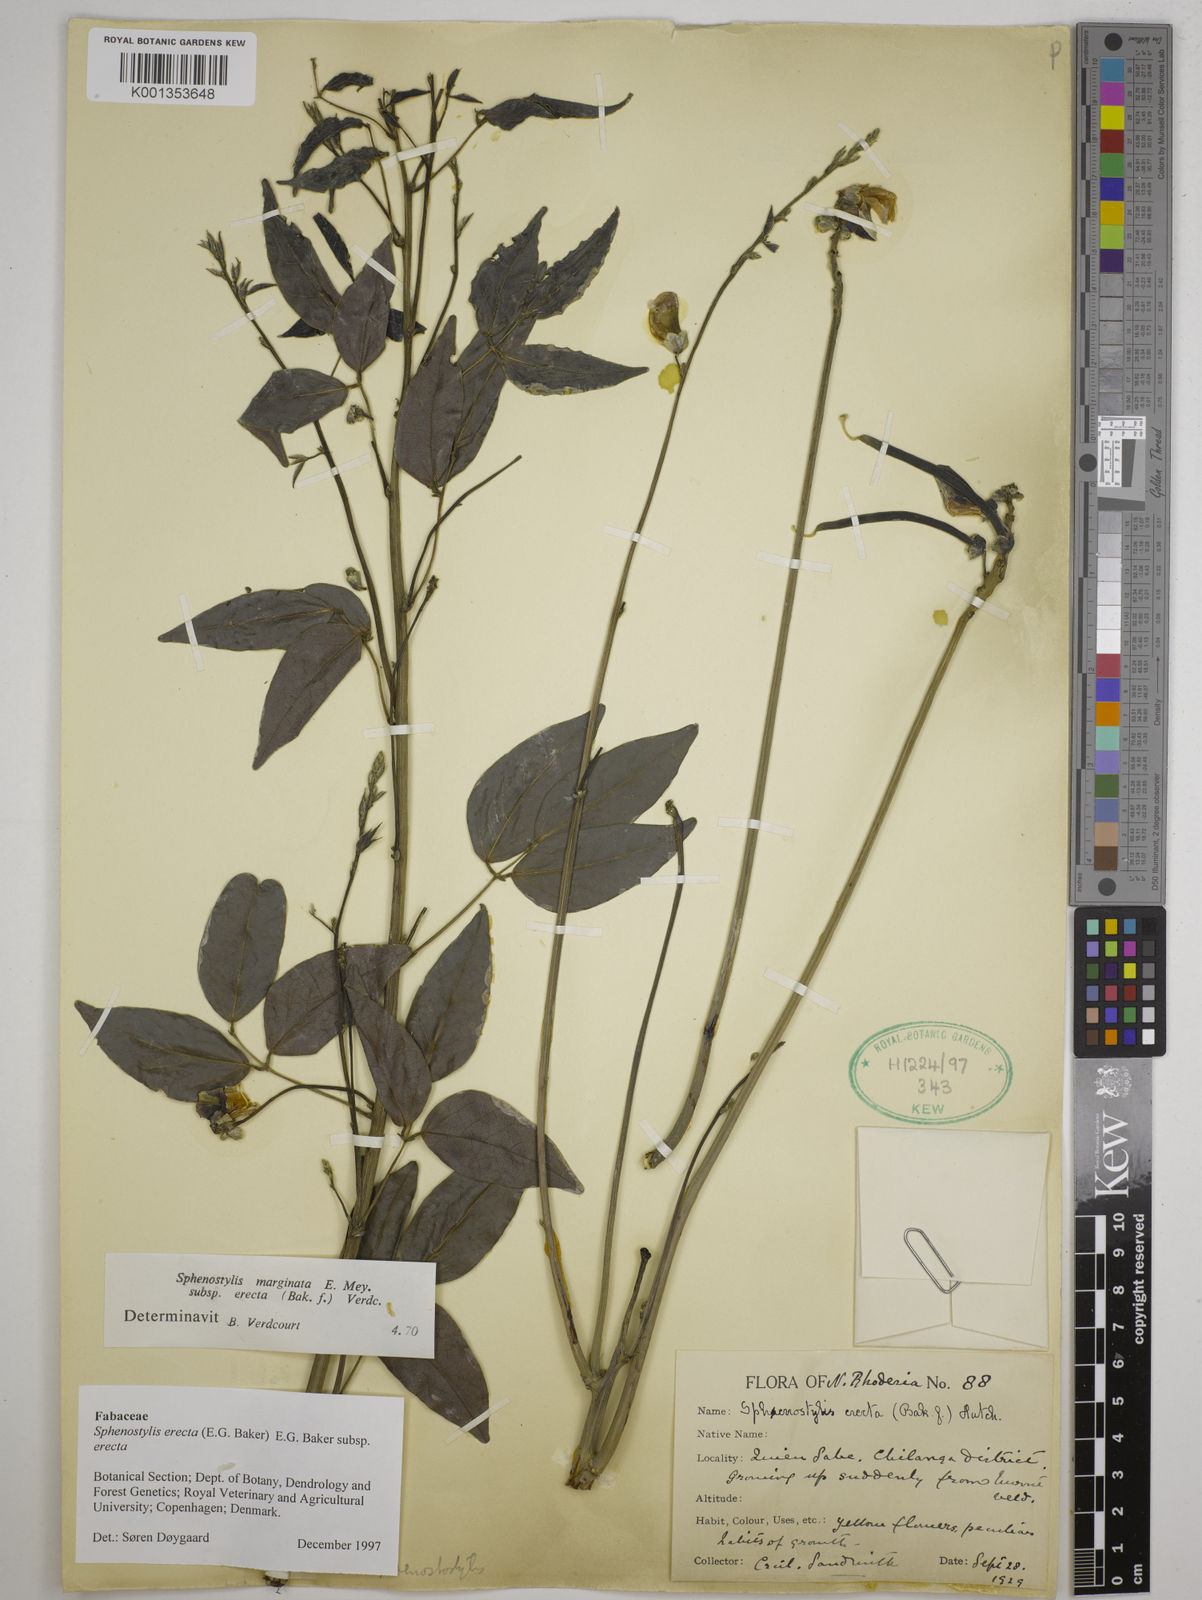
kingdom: Plantae
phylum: Tracheophyta
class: Magnoliopsida
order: Fabales
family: Fabaceae
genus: Sphenostylis
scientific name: Sphenostylis erecta
